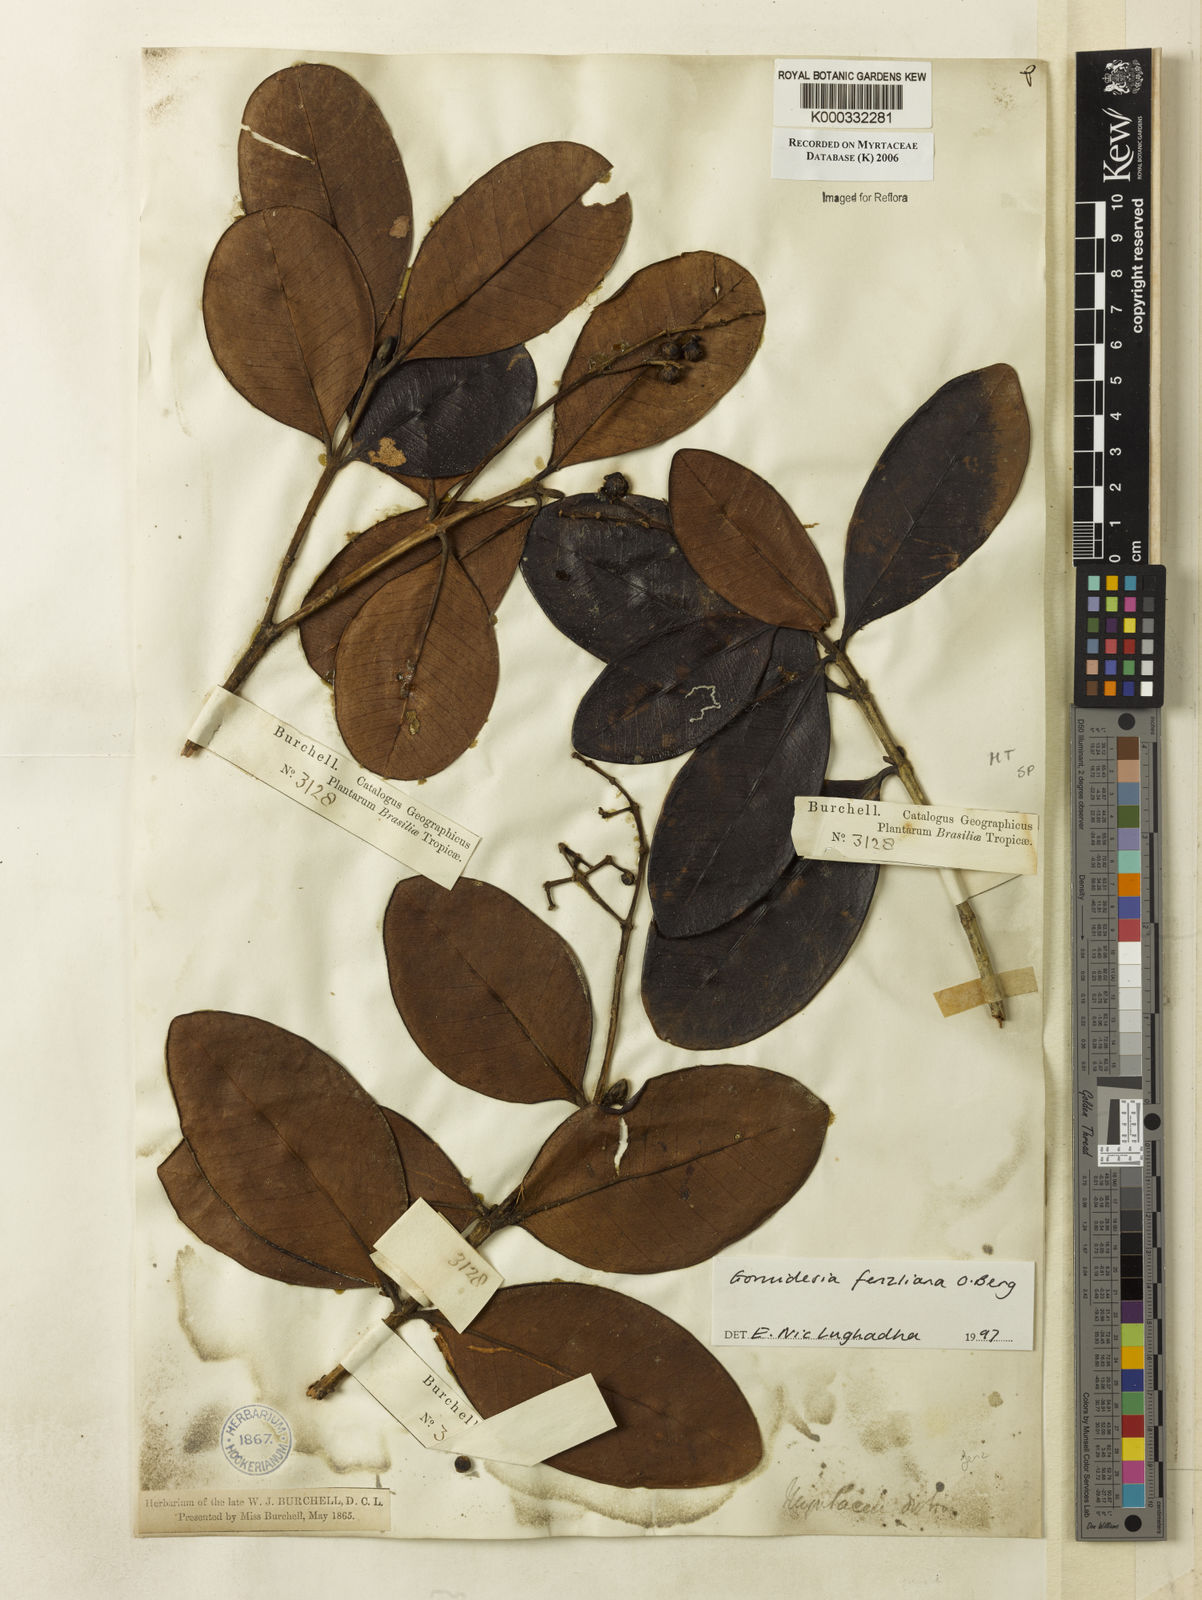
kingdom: Plantae
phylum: Tracheophyta
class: Magnoliopsida
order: Myrtales
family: Myrtaceae
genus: Myrcia
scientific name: Myrcia ilheosensis
